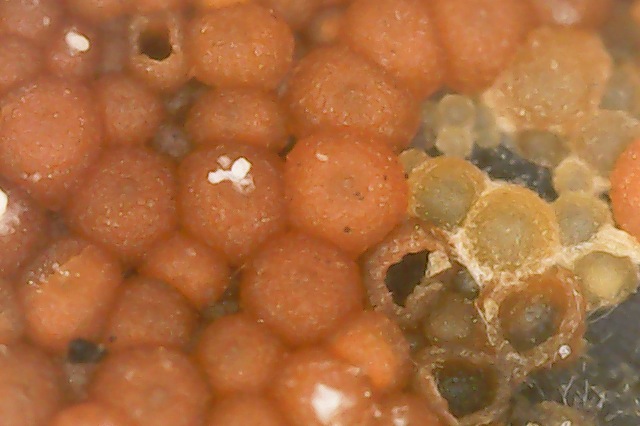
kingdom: Fungi
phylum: Ascomycota
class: Sordariomycetes
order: Hypocreales
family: Nectriaceae
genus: Hydropisphaera
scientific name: Hydropisphaera peziza
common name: skålformet gyldenkerne
